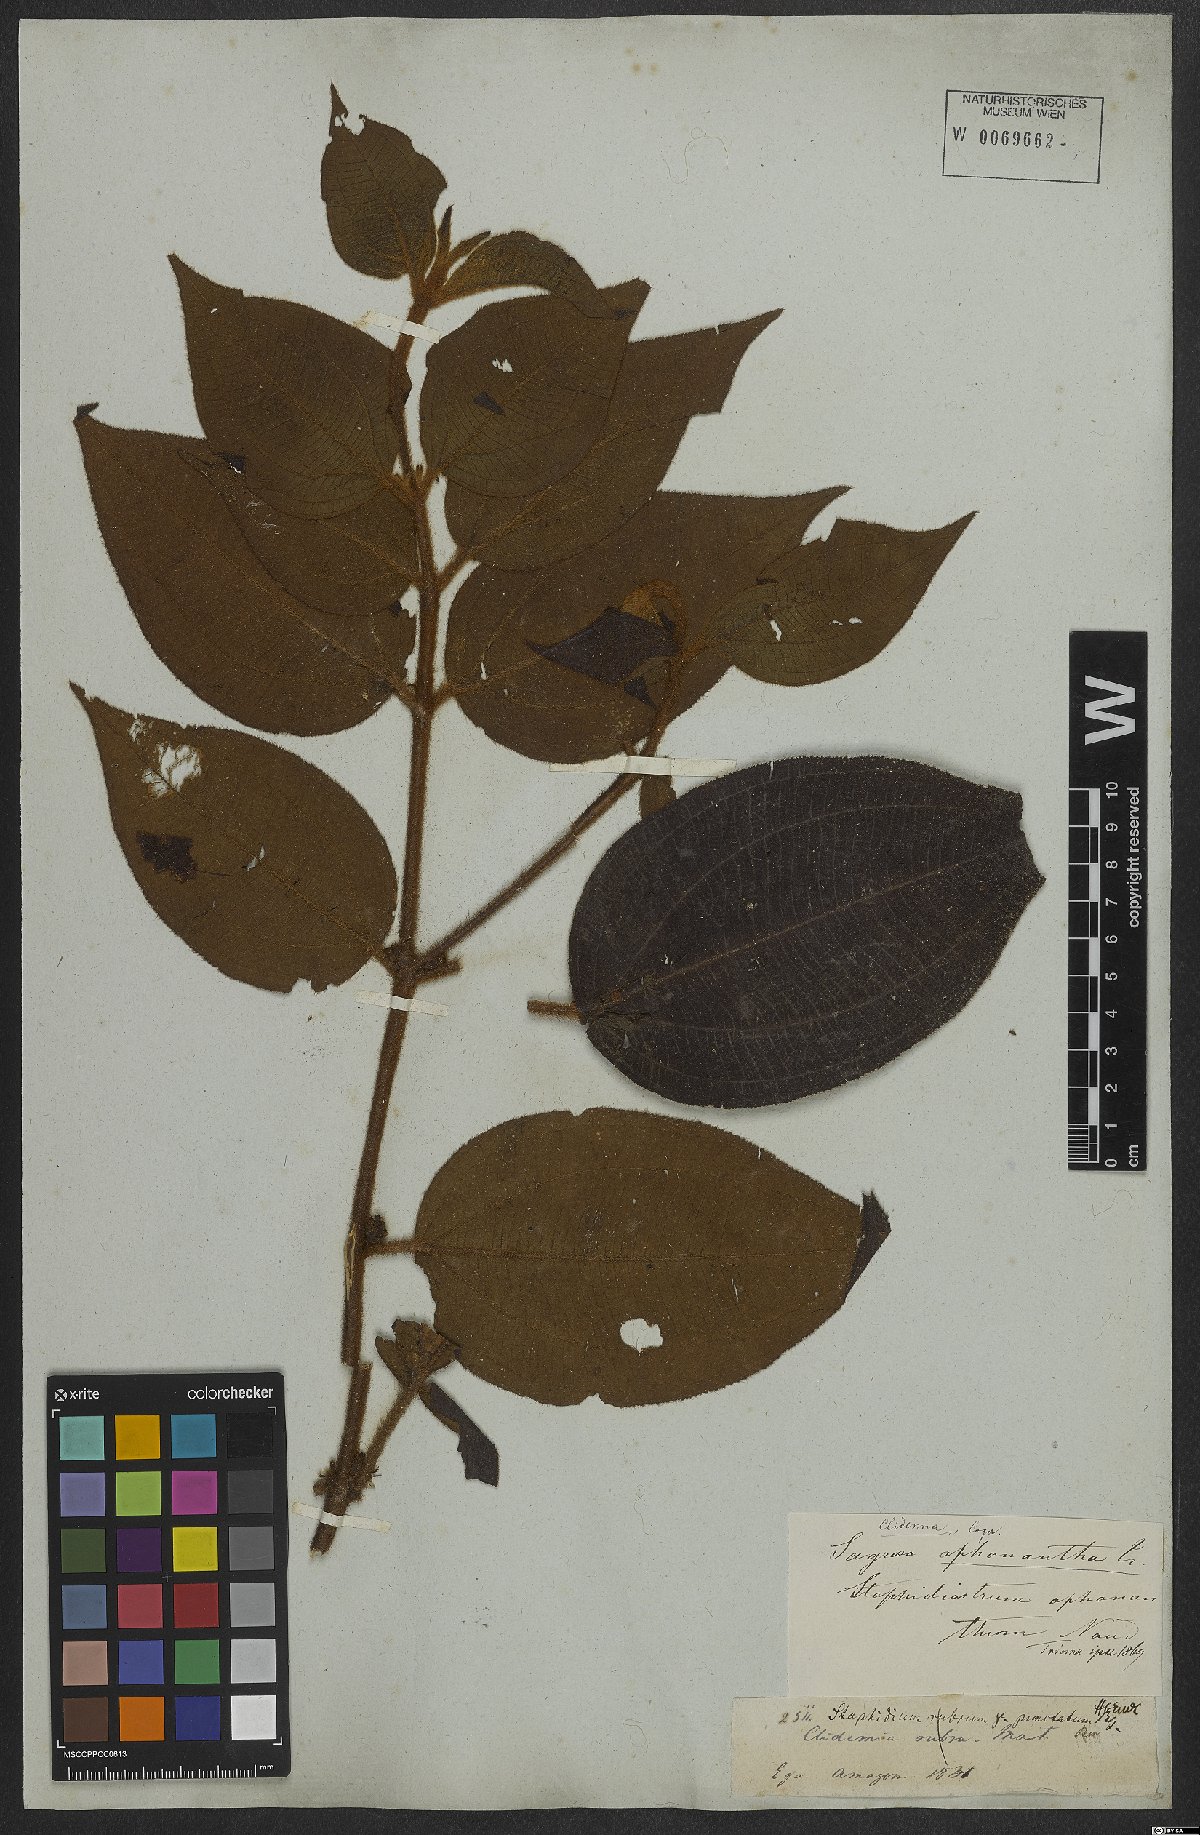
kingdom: Plantae
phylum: Tracheophyta
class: Magnoliopsida
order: Myrtales
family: Melastomataceae
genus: Miconia
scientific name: Miconia aphanantha
